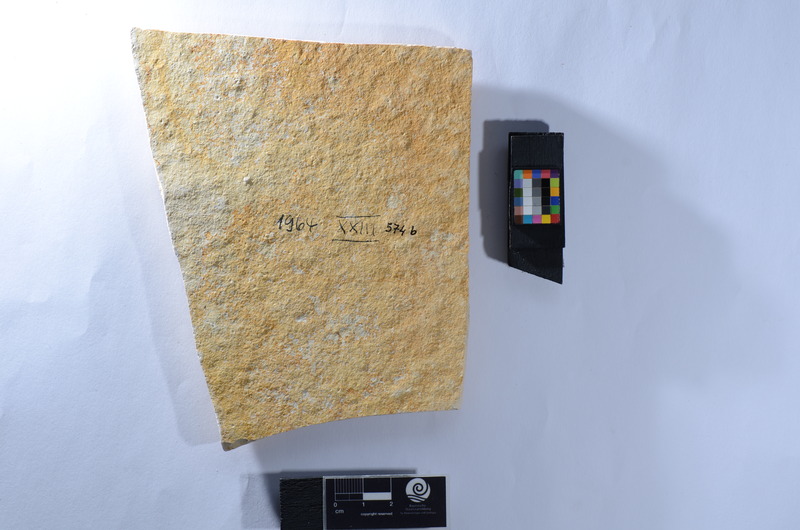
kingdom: Animalia
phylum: Chordata
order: Amiiformes
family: Caturidae
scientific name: Caturidae
